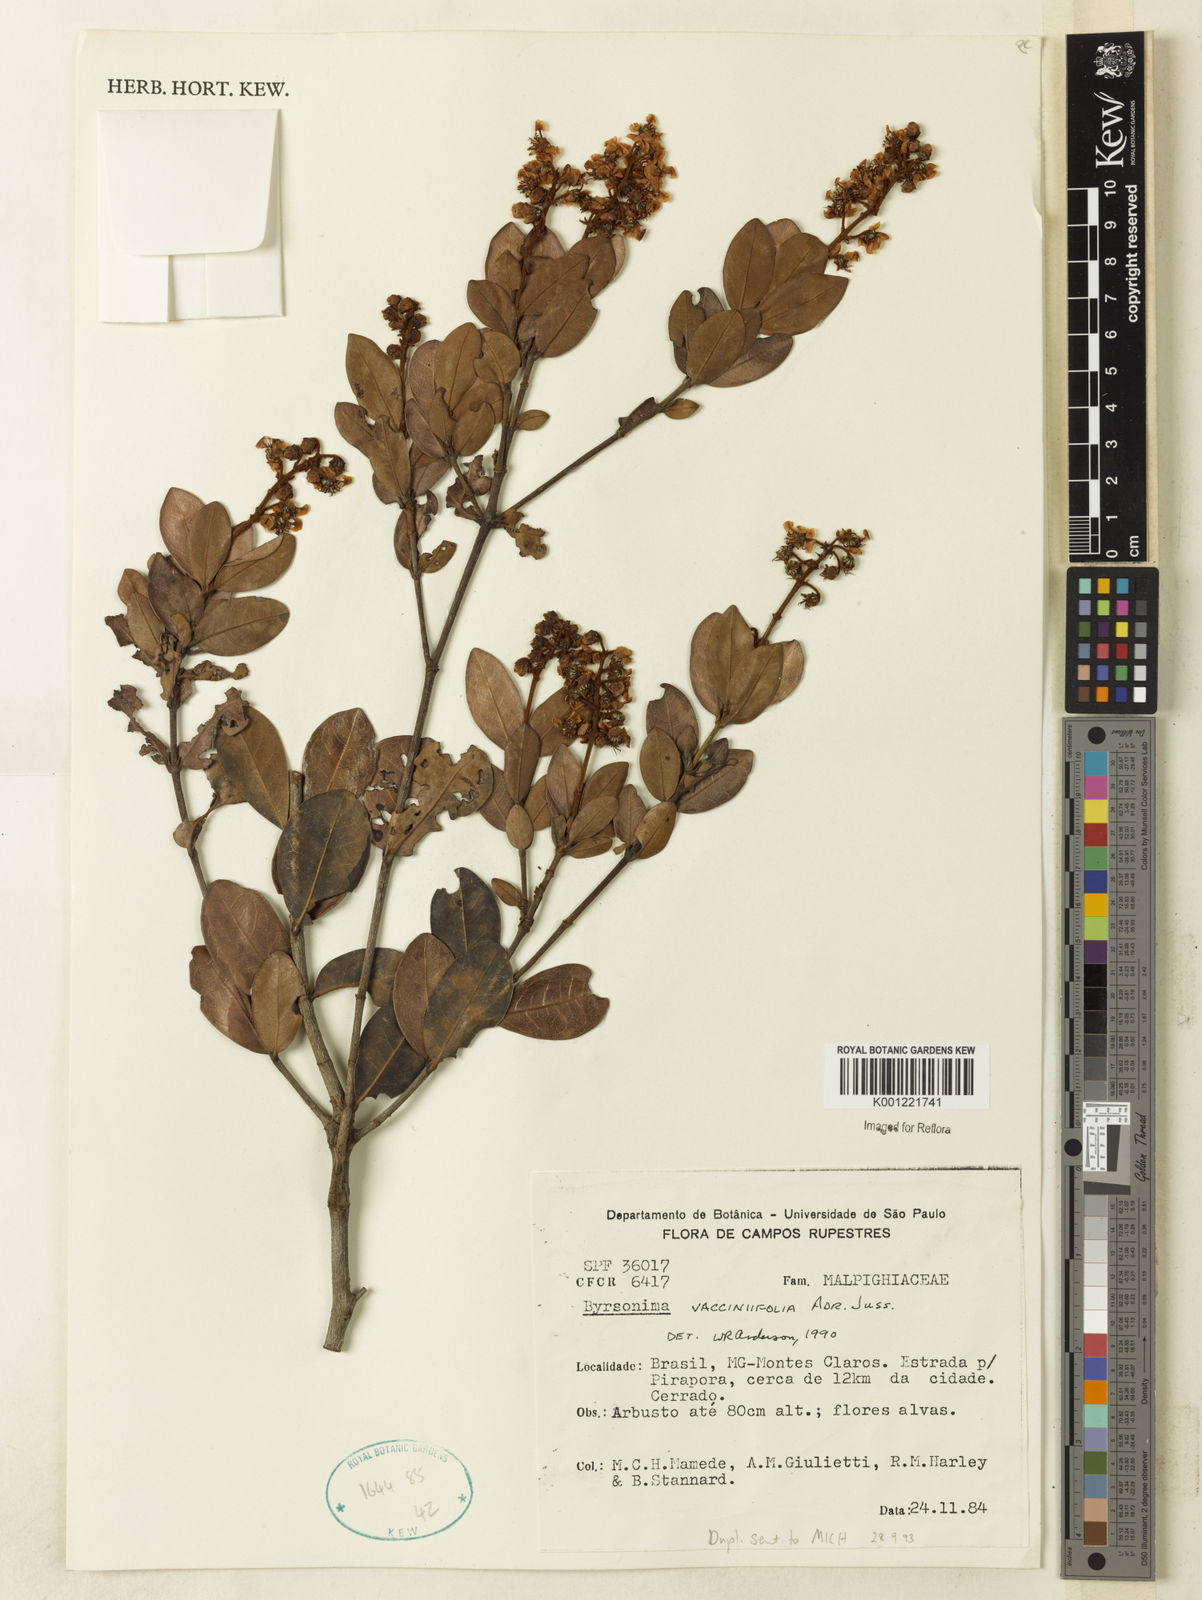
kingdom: Plantae
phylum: Tracheophyta
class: Magnoliopsida
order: Malpighiales
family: Malpighiaceae
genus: Byrsonima
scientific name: Byrsonima vacciniifolia
